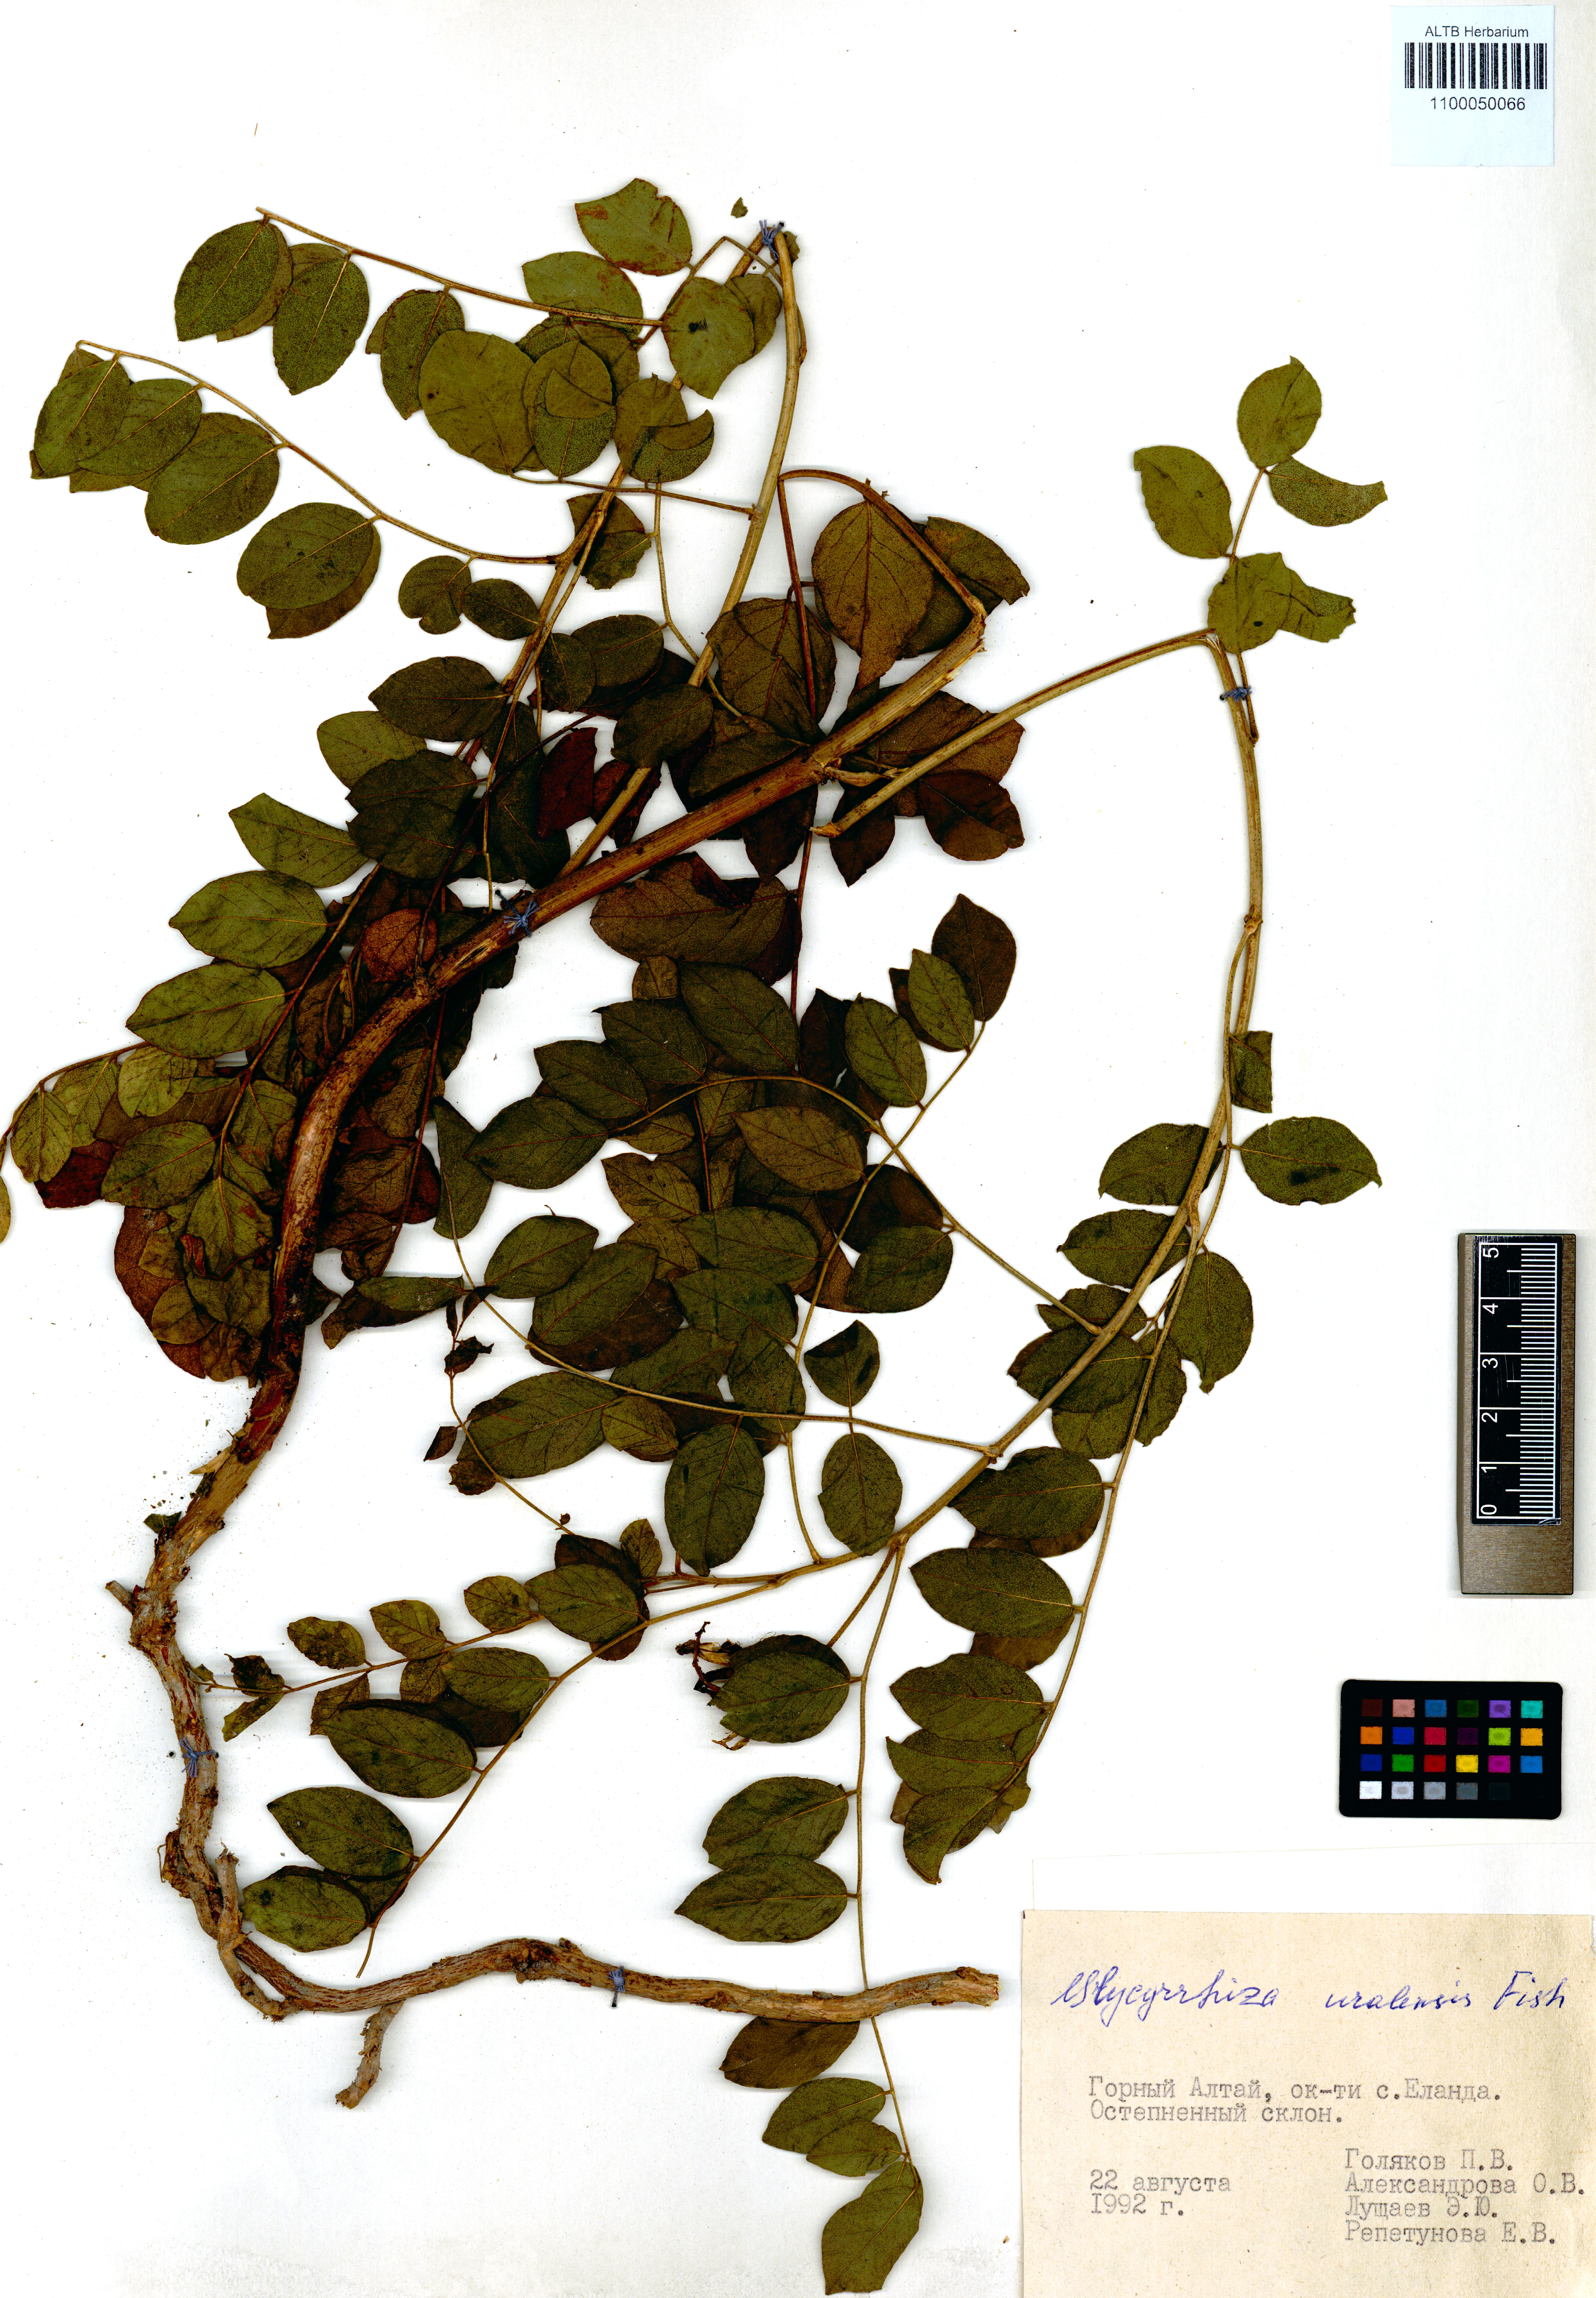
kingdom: Plantae
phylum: Tracheophyta
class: Magnoliopsida
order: Fabales
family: Fabaceae
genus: Glycyrrhiza
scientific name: Glycyrrhiza uralensis
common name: Chinese licorice
